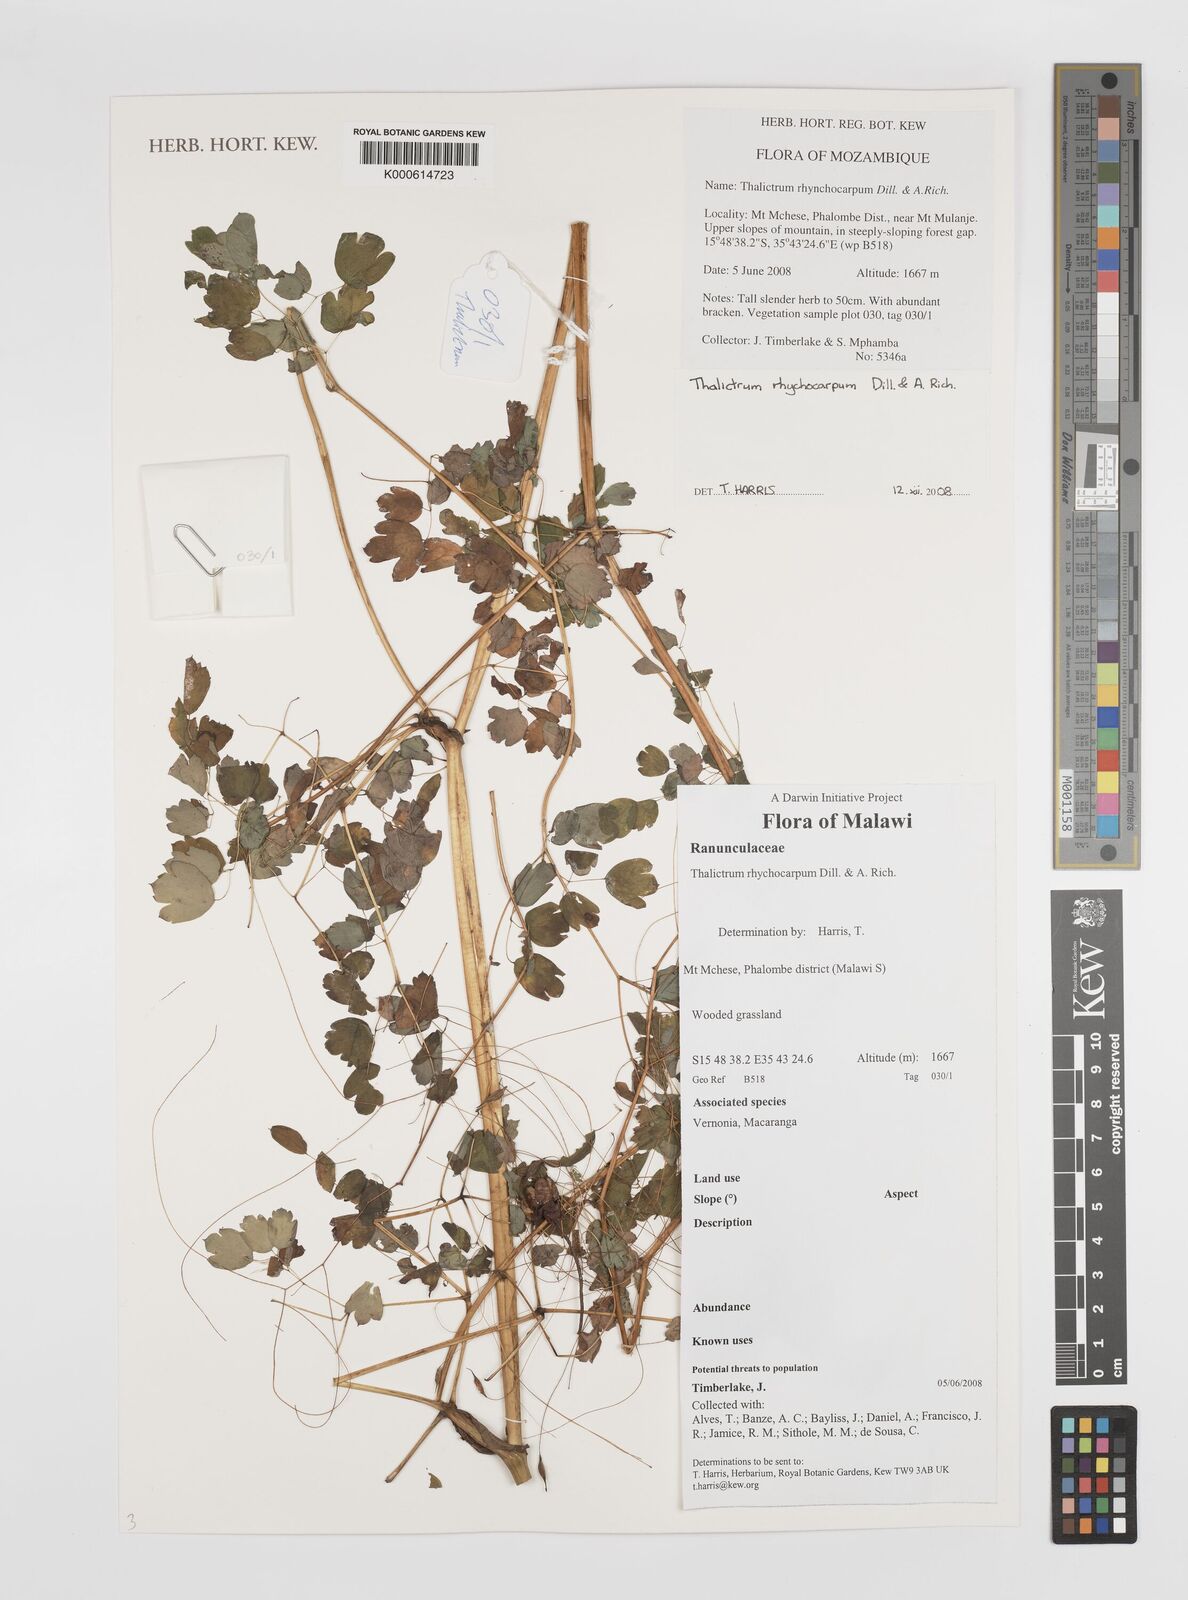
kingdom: Plantae
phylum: Tracheophyta
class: Magnoliopsida
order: Ranunculales
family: Ranunculaceae
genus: Thalictrum
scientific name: Thalictrum
